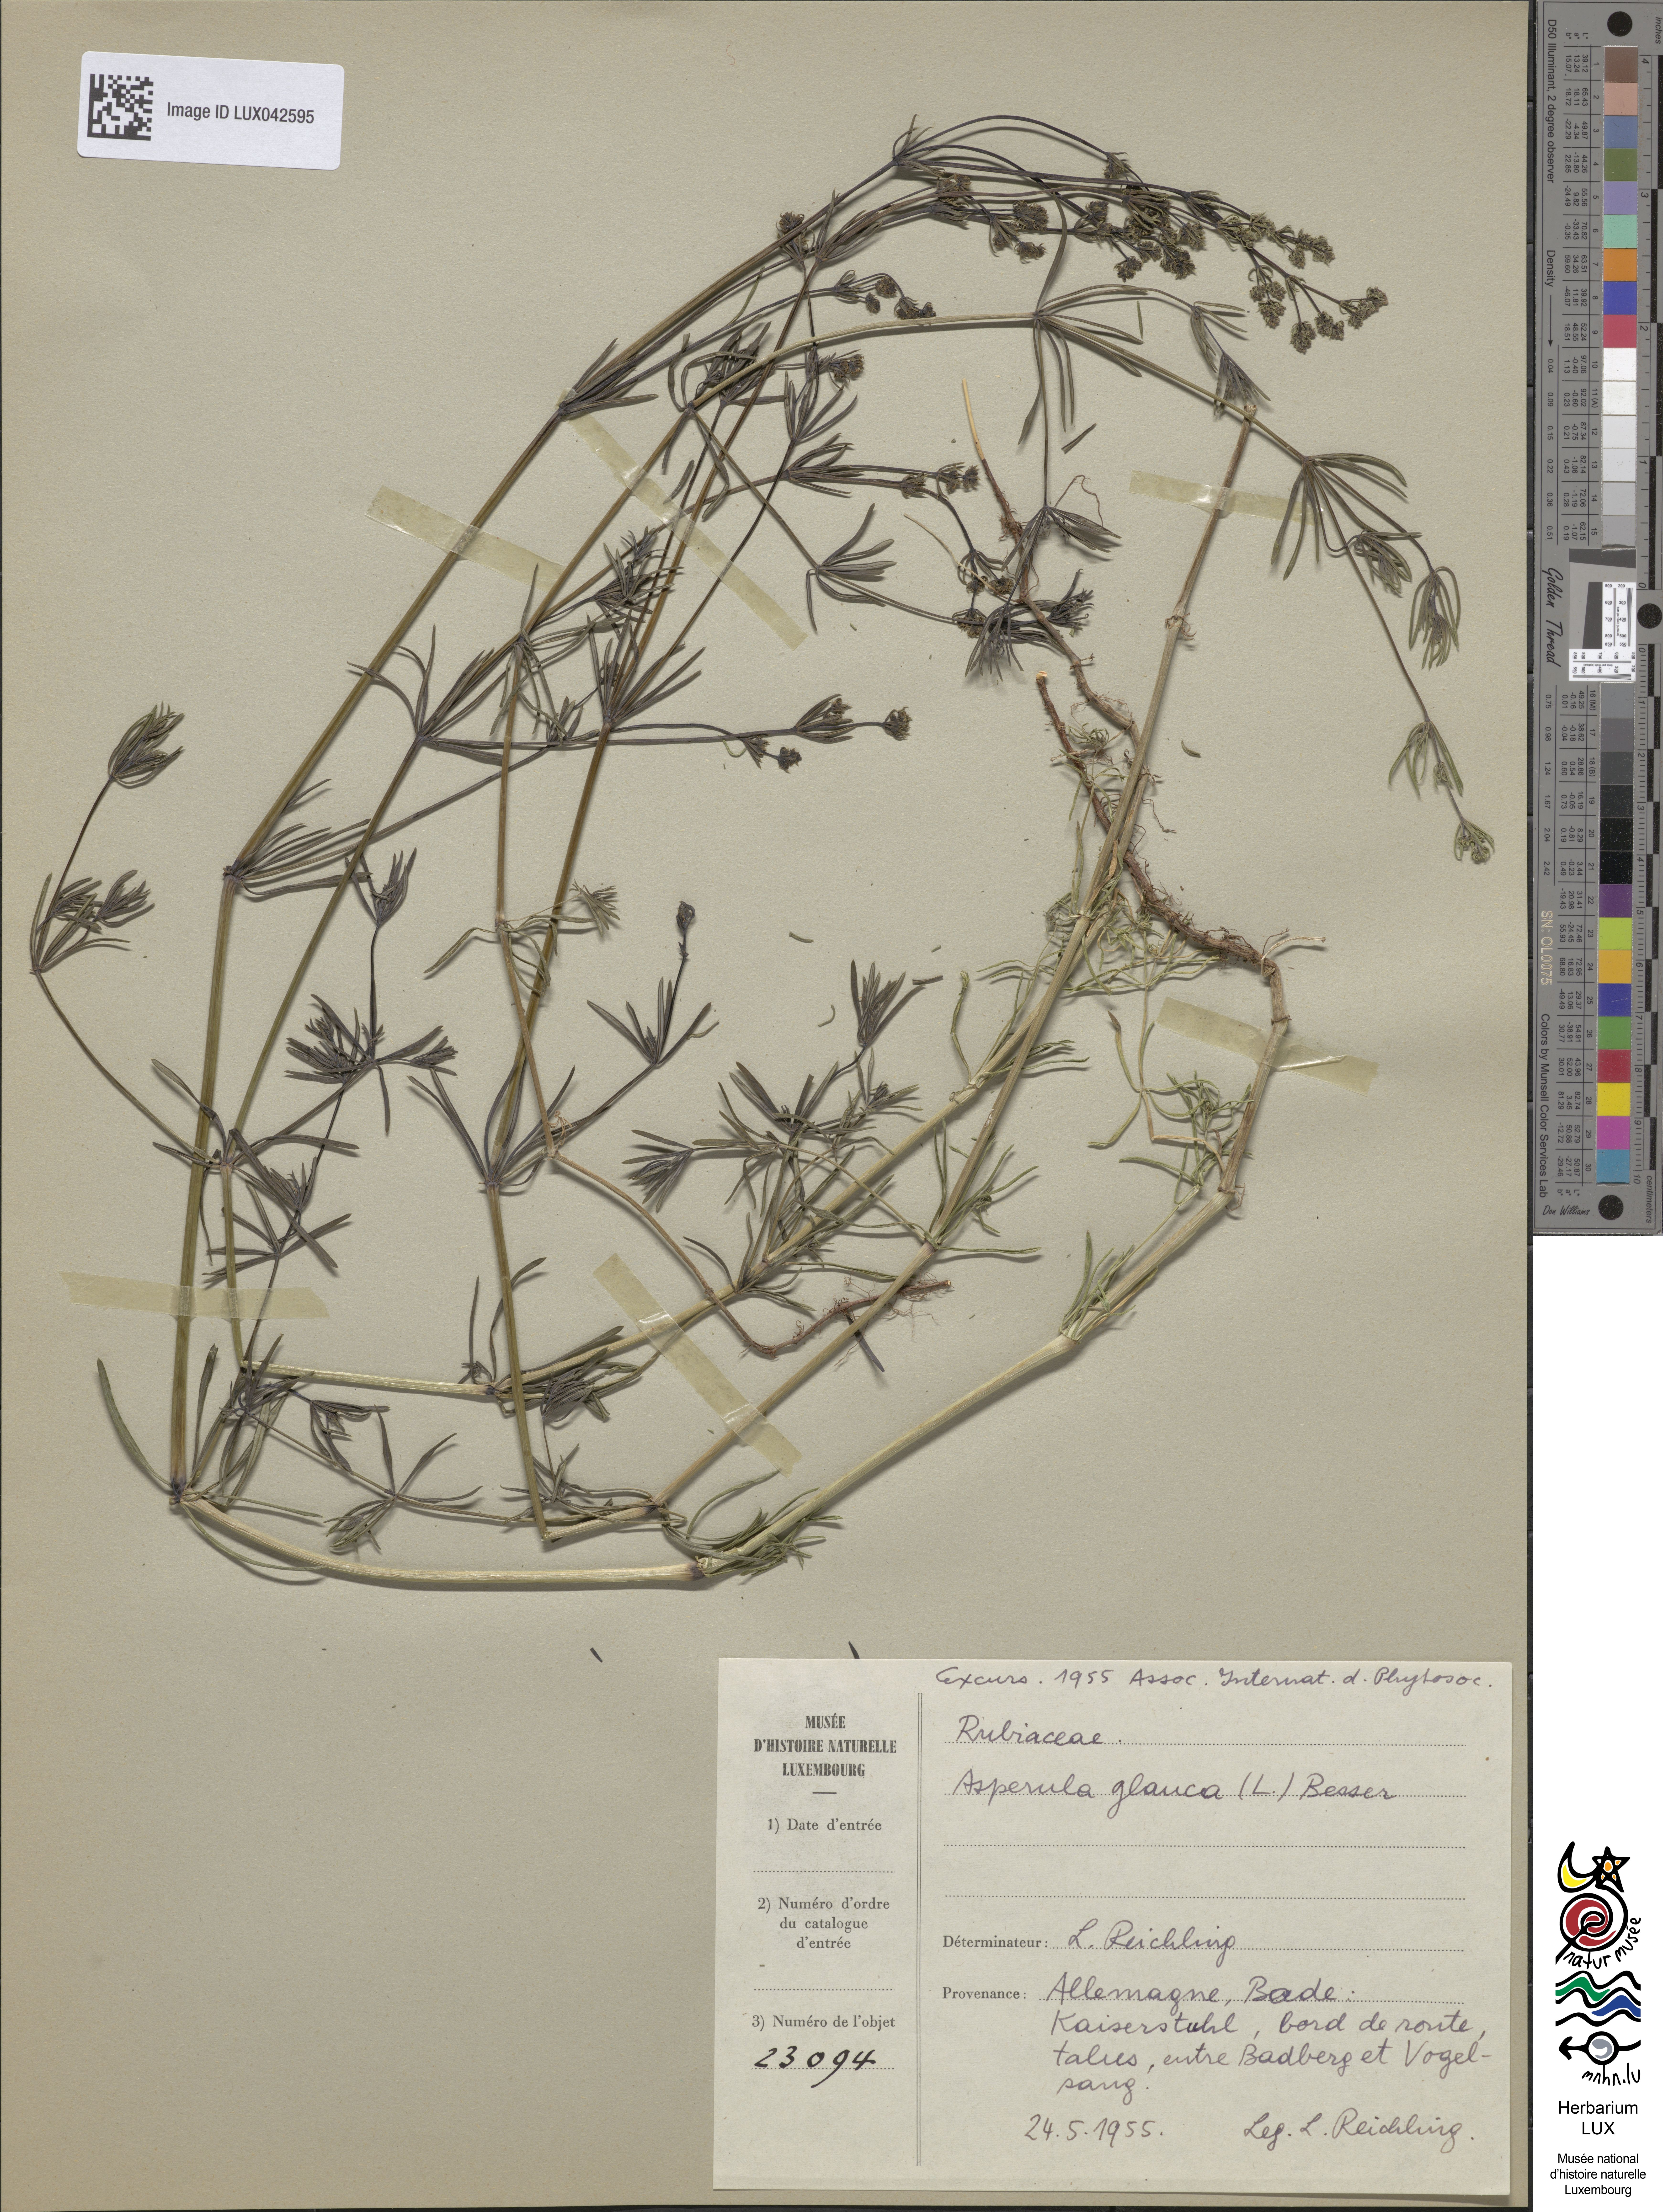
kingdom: Plantae
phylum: Tracheophyta
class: Magnoliopsida
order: Gentianales
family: Rubiaceae
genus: Galium
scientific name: Galium glaucum
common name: Waxy bedstraw
